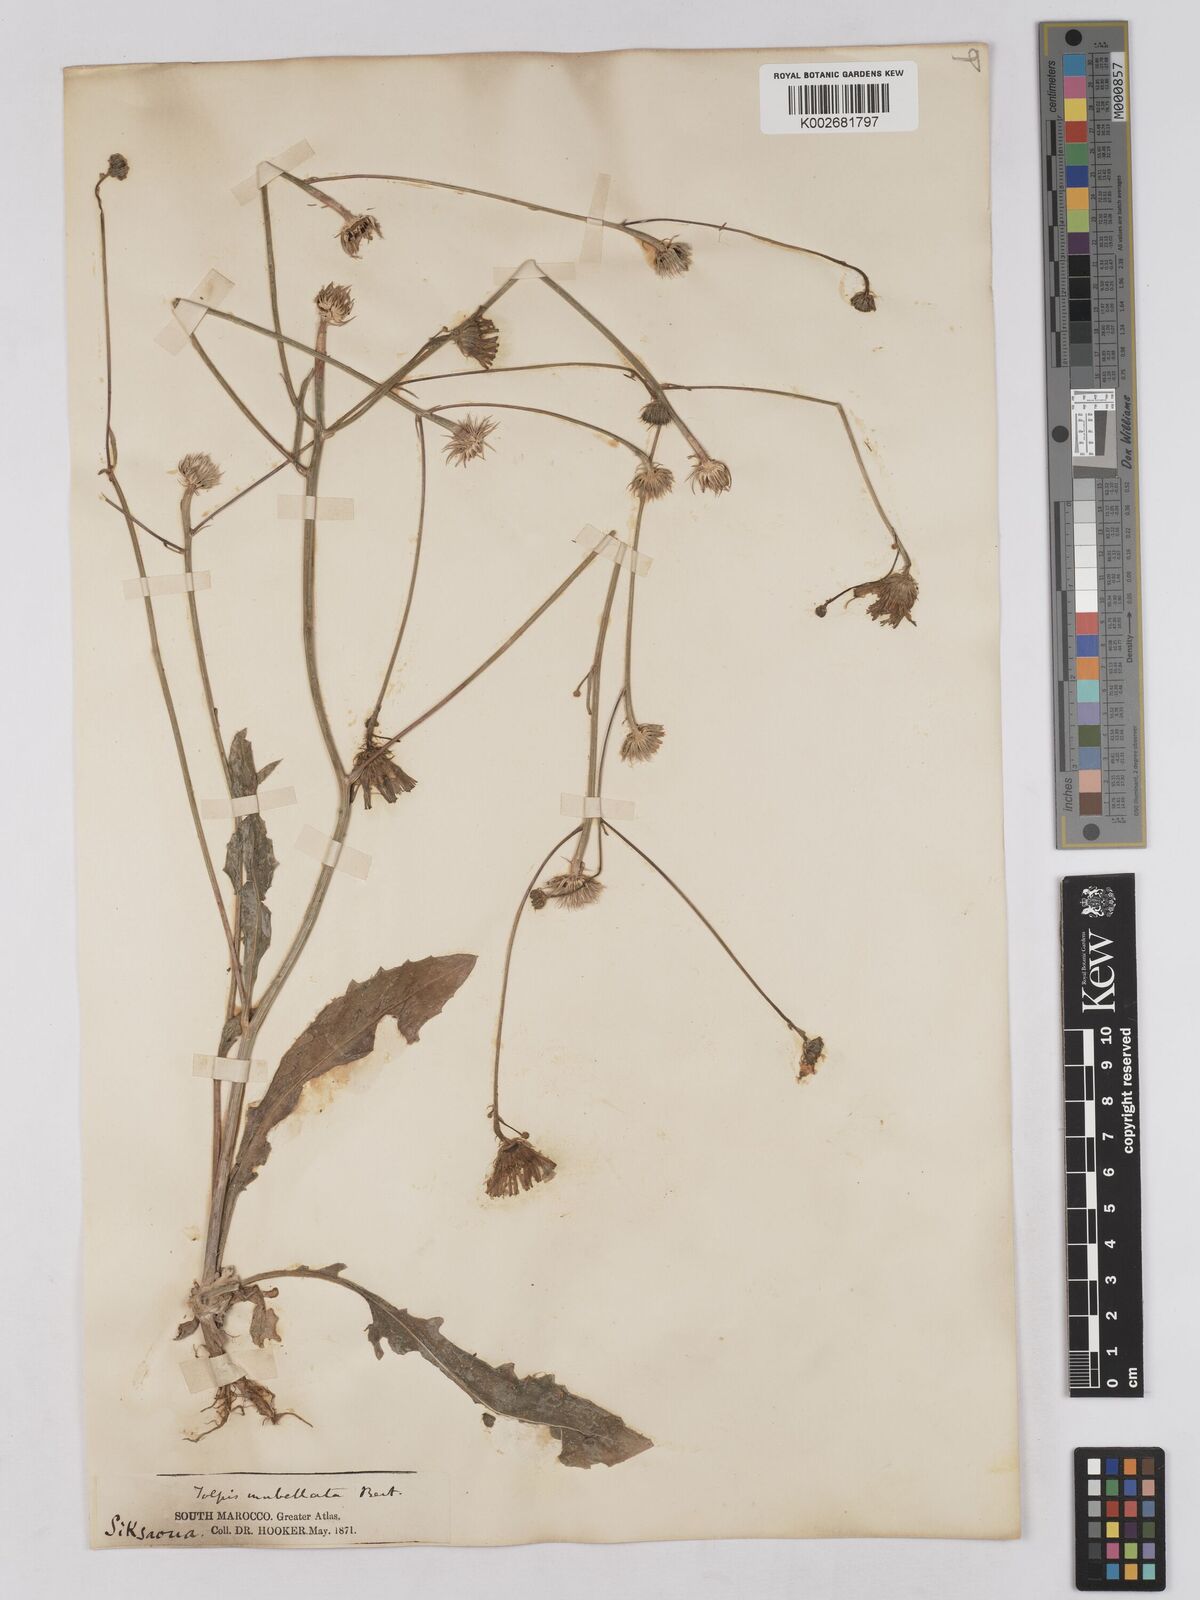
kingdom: Plantae
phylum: Tracheophyta
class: Magnoliopsida
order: Asterales
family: Asteraceae
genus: Tolpis
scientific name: Tolpis umbellata
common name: Yellow hawkweed
